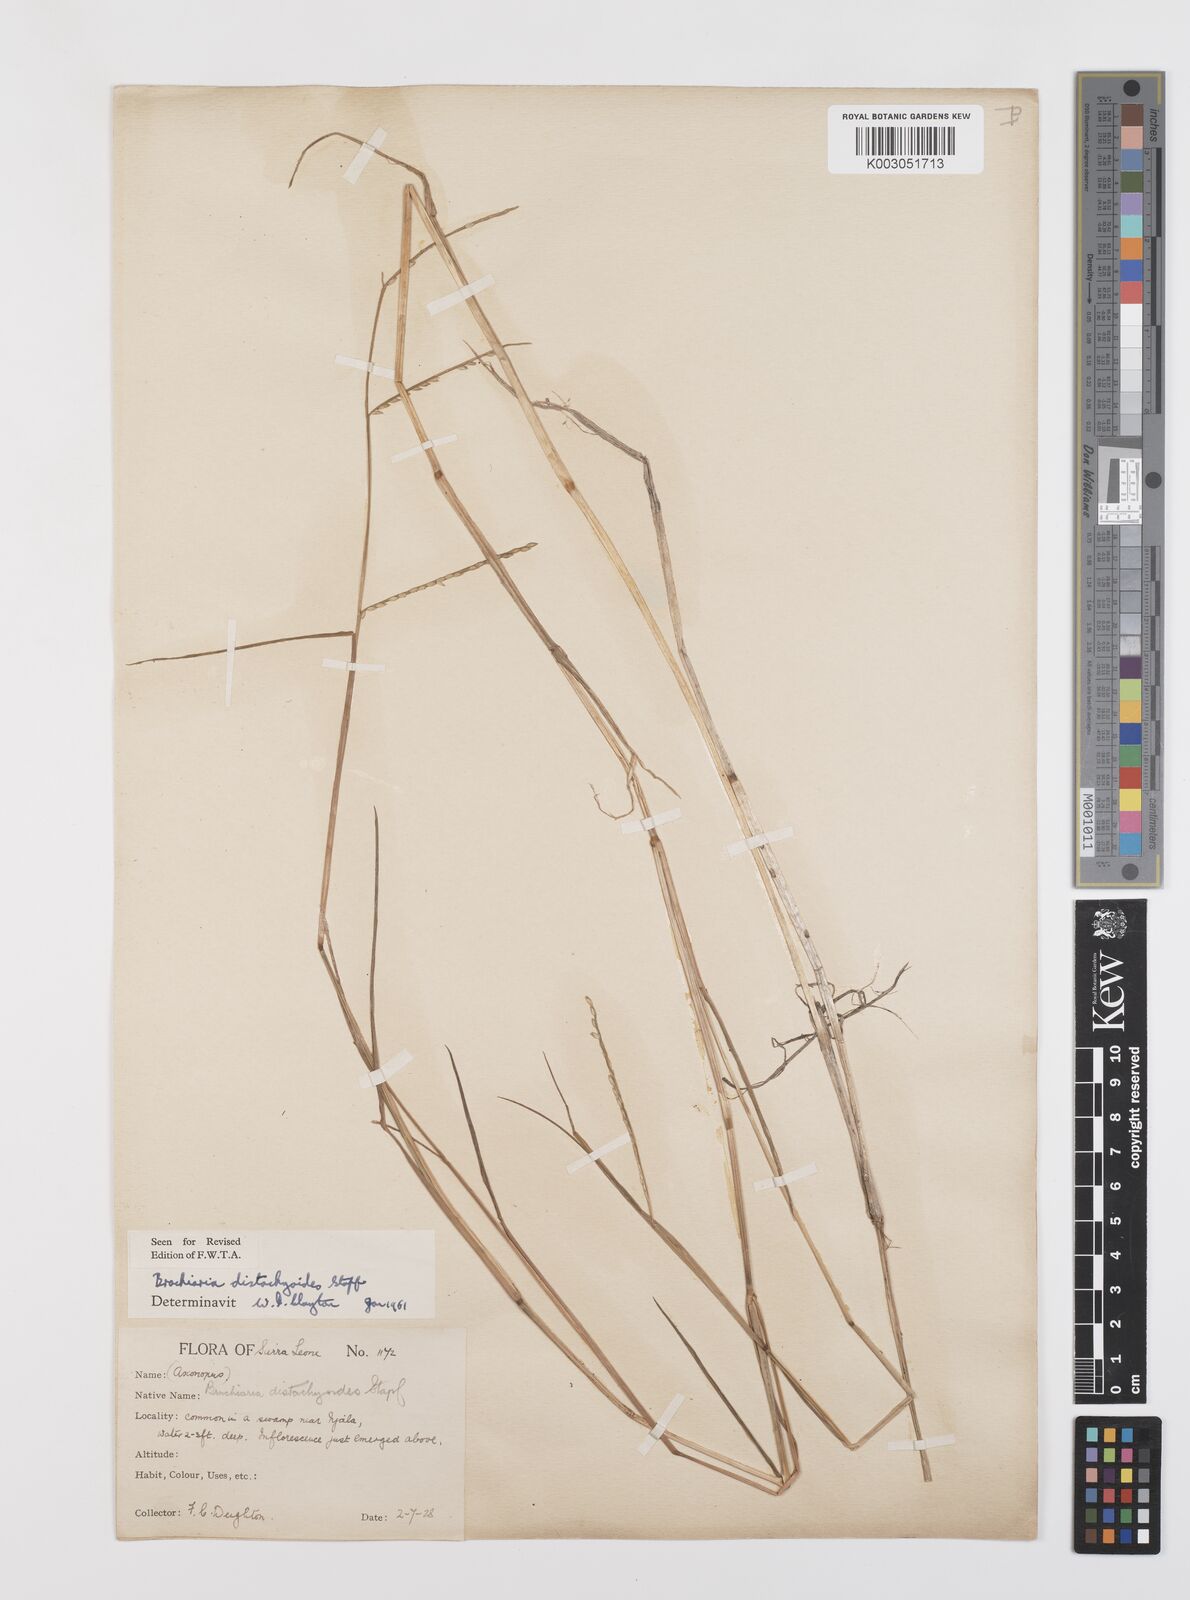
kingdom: Plantae
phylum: Tracheophyta
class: Liliopsida
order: Poales
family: Poaceae
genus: Urochloa
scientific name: Urochloa distachyoides
